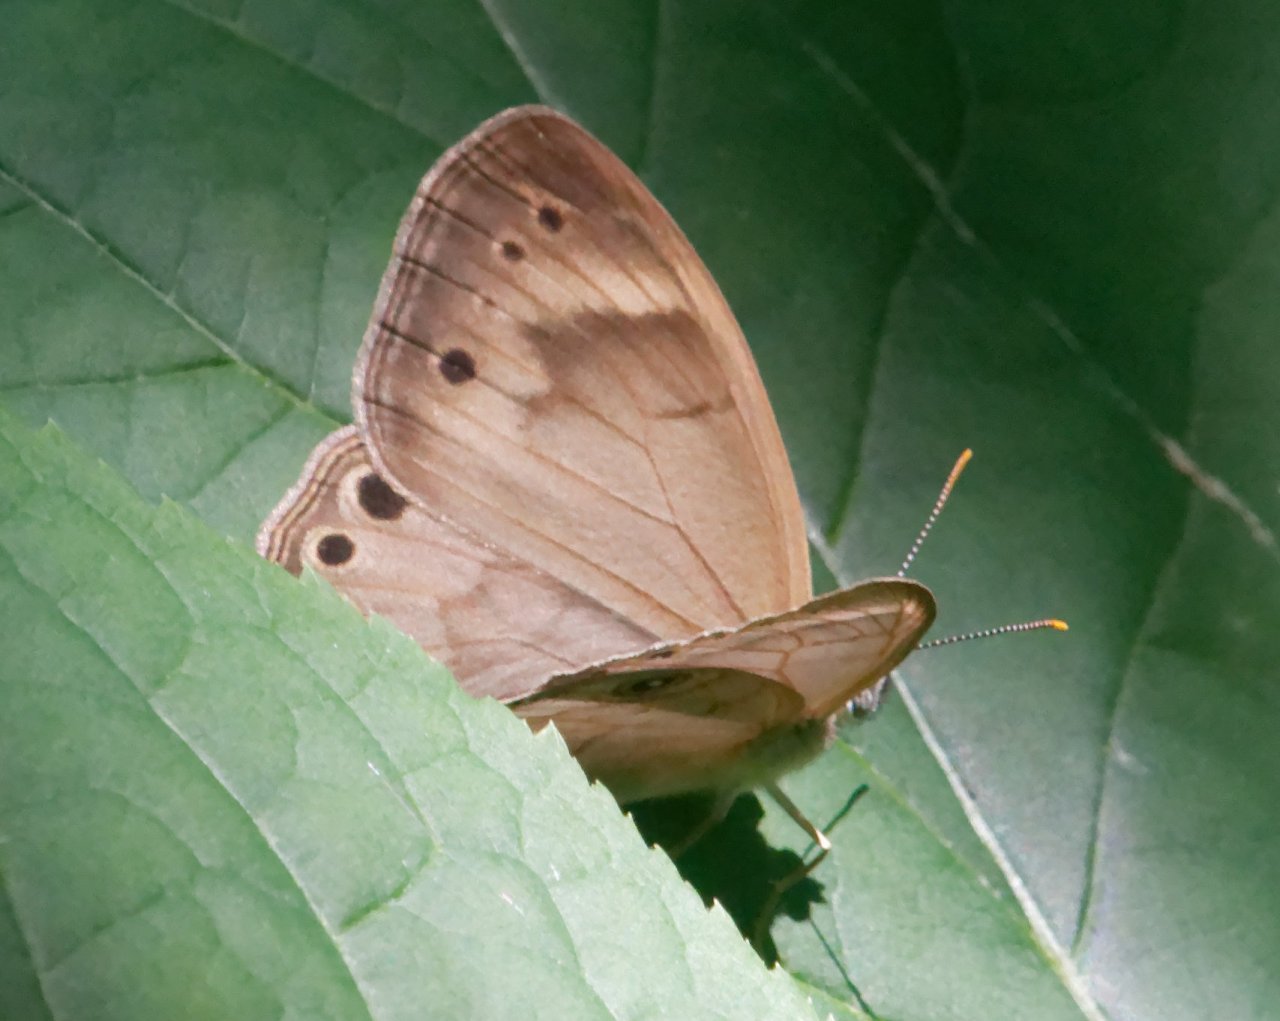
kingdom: Animalia
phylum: Arthropoda
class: Insecta
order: Lepidoptera
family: Nymphalidae
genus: Lethe
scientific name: Lethe eurydice
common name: Appalachian Eyed Brown
